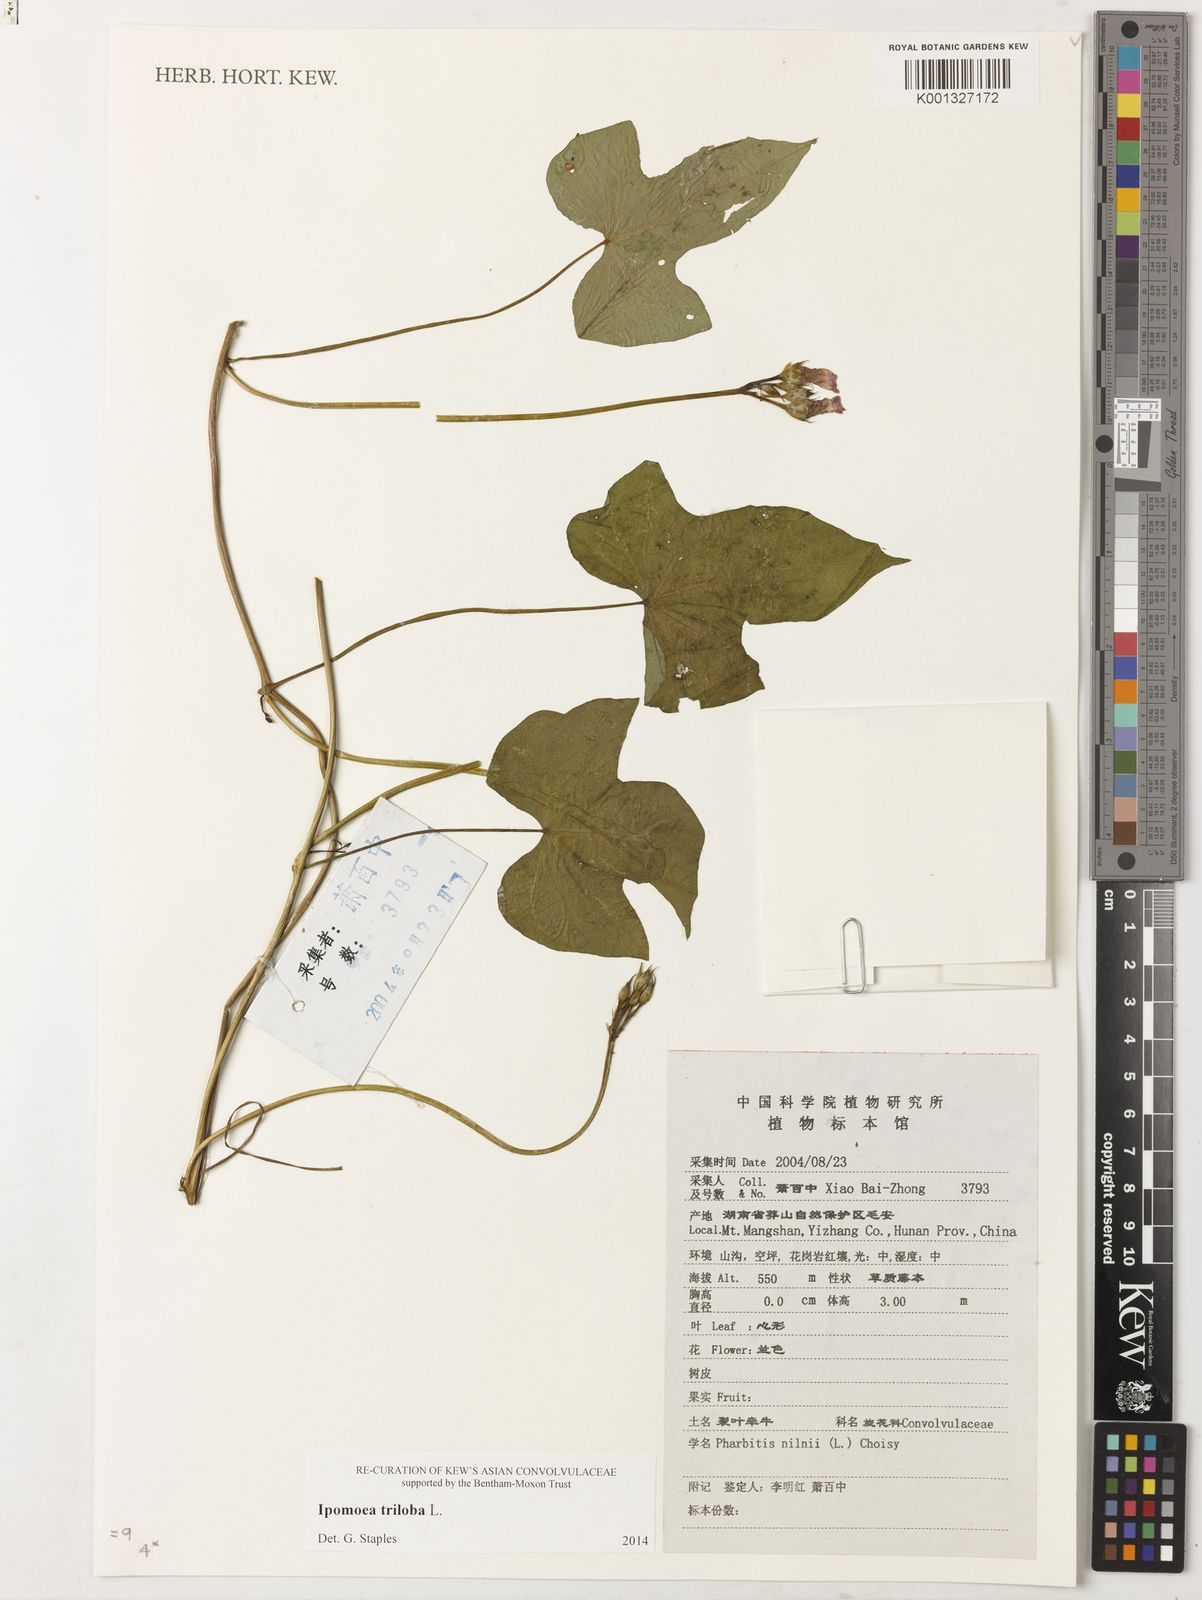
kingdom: Plantae
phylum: Tracheophyta
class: Magnoliopsida
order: Solanales
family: Convolvulaceae
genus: Ipomoea
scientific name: Ipomoea triloba
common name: Little-bell
